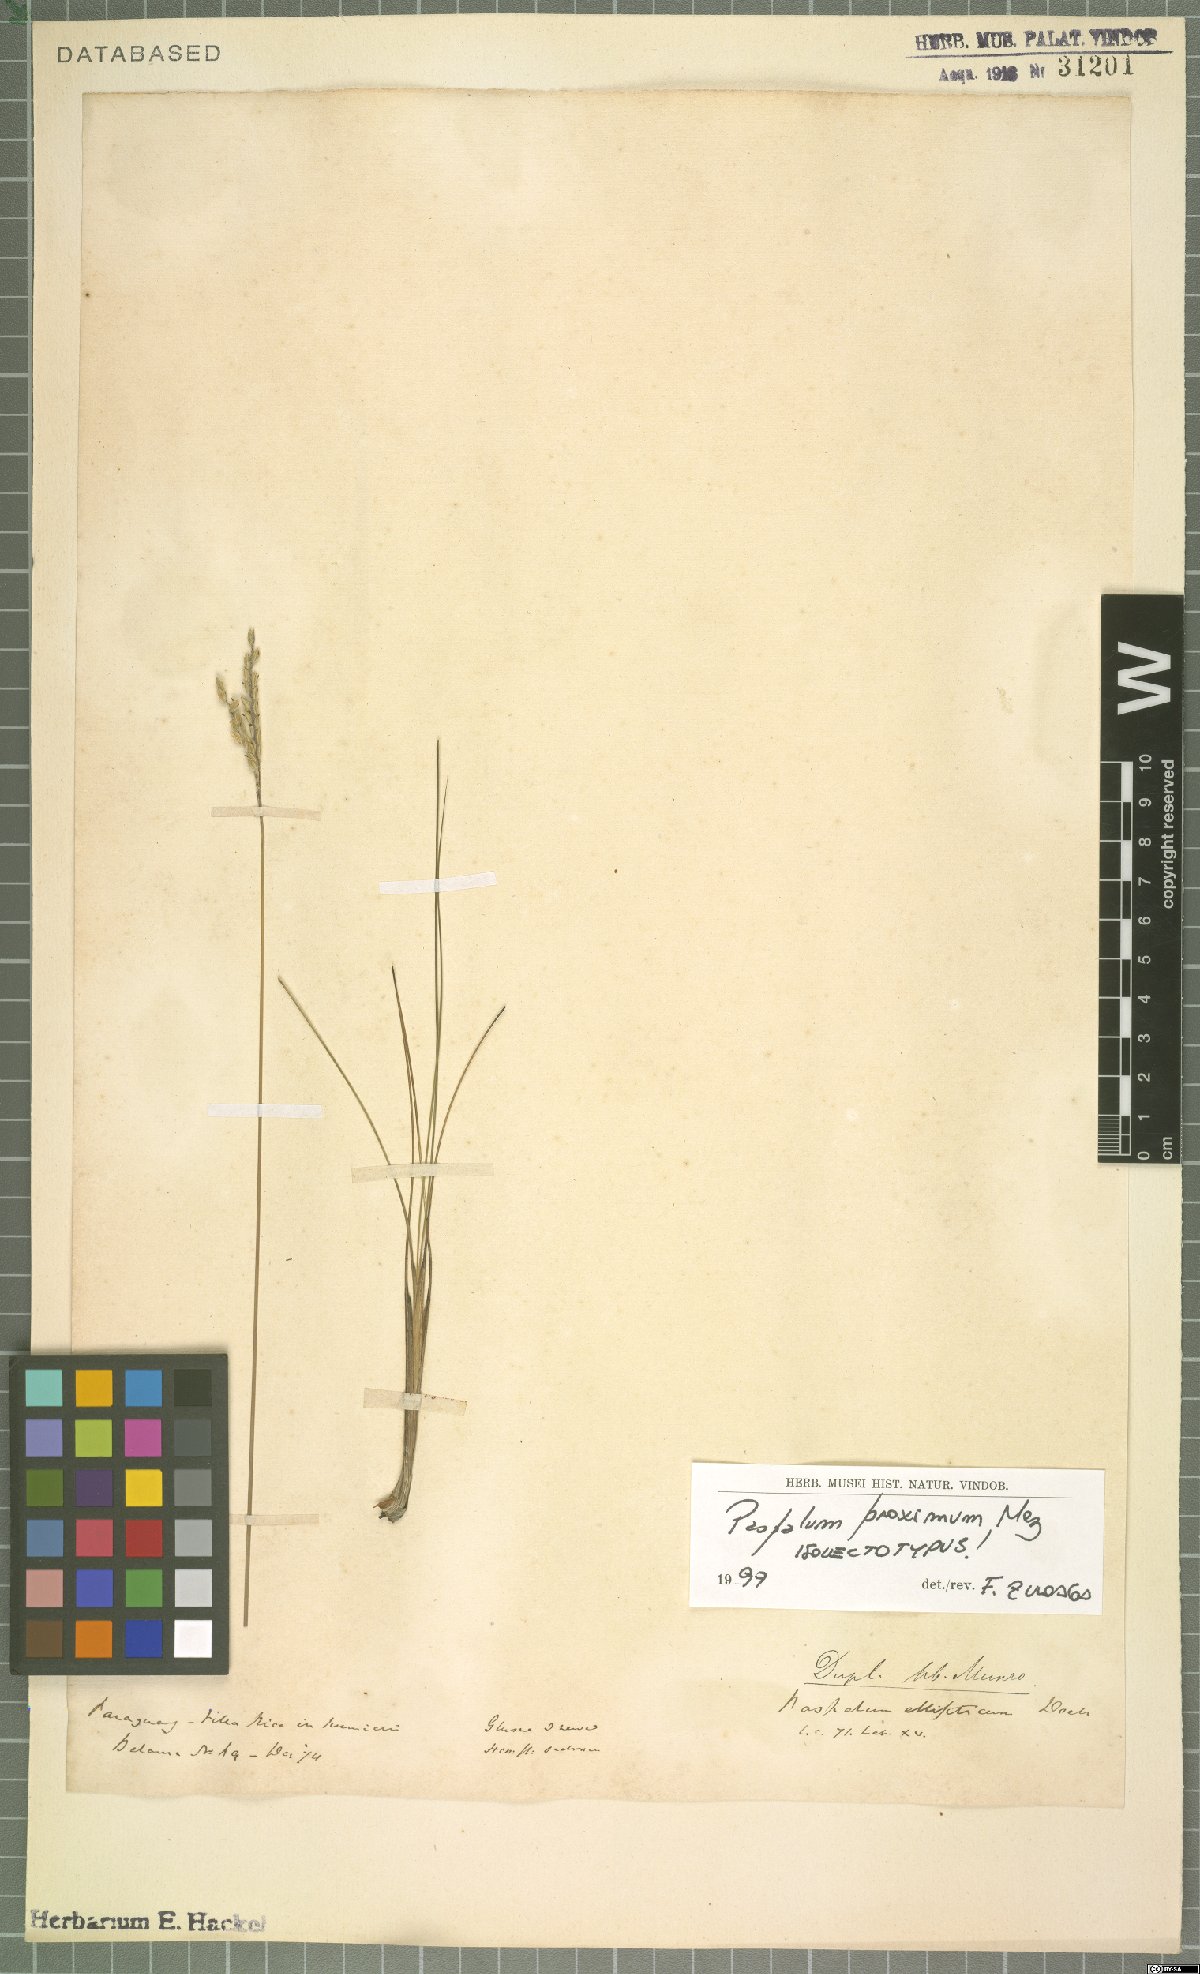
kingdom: Plantae
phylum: Tracheophyta
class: Liliopsida
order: Poales
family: Poaceae
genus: Paspalum
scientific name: Paspalum ellipticum
